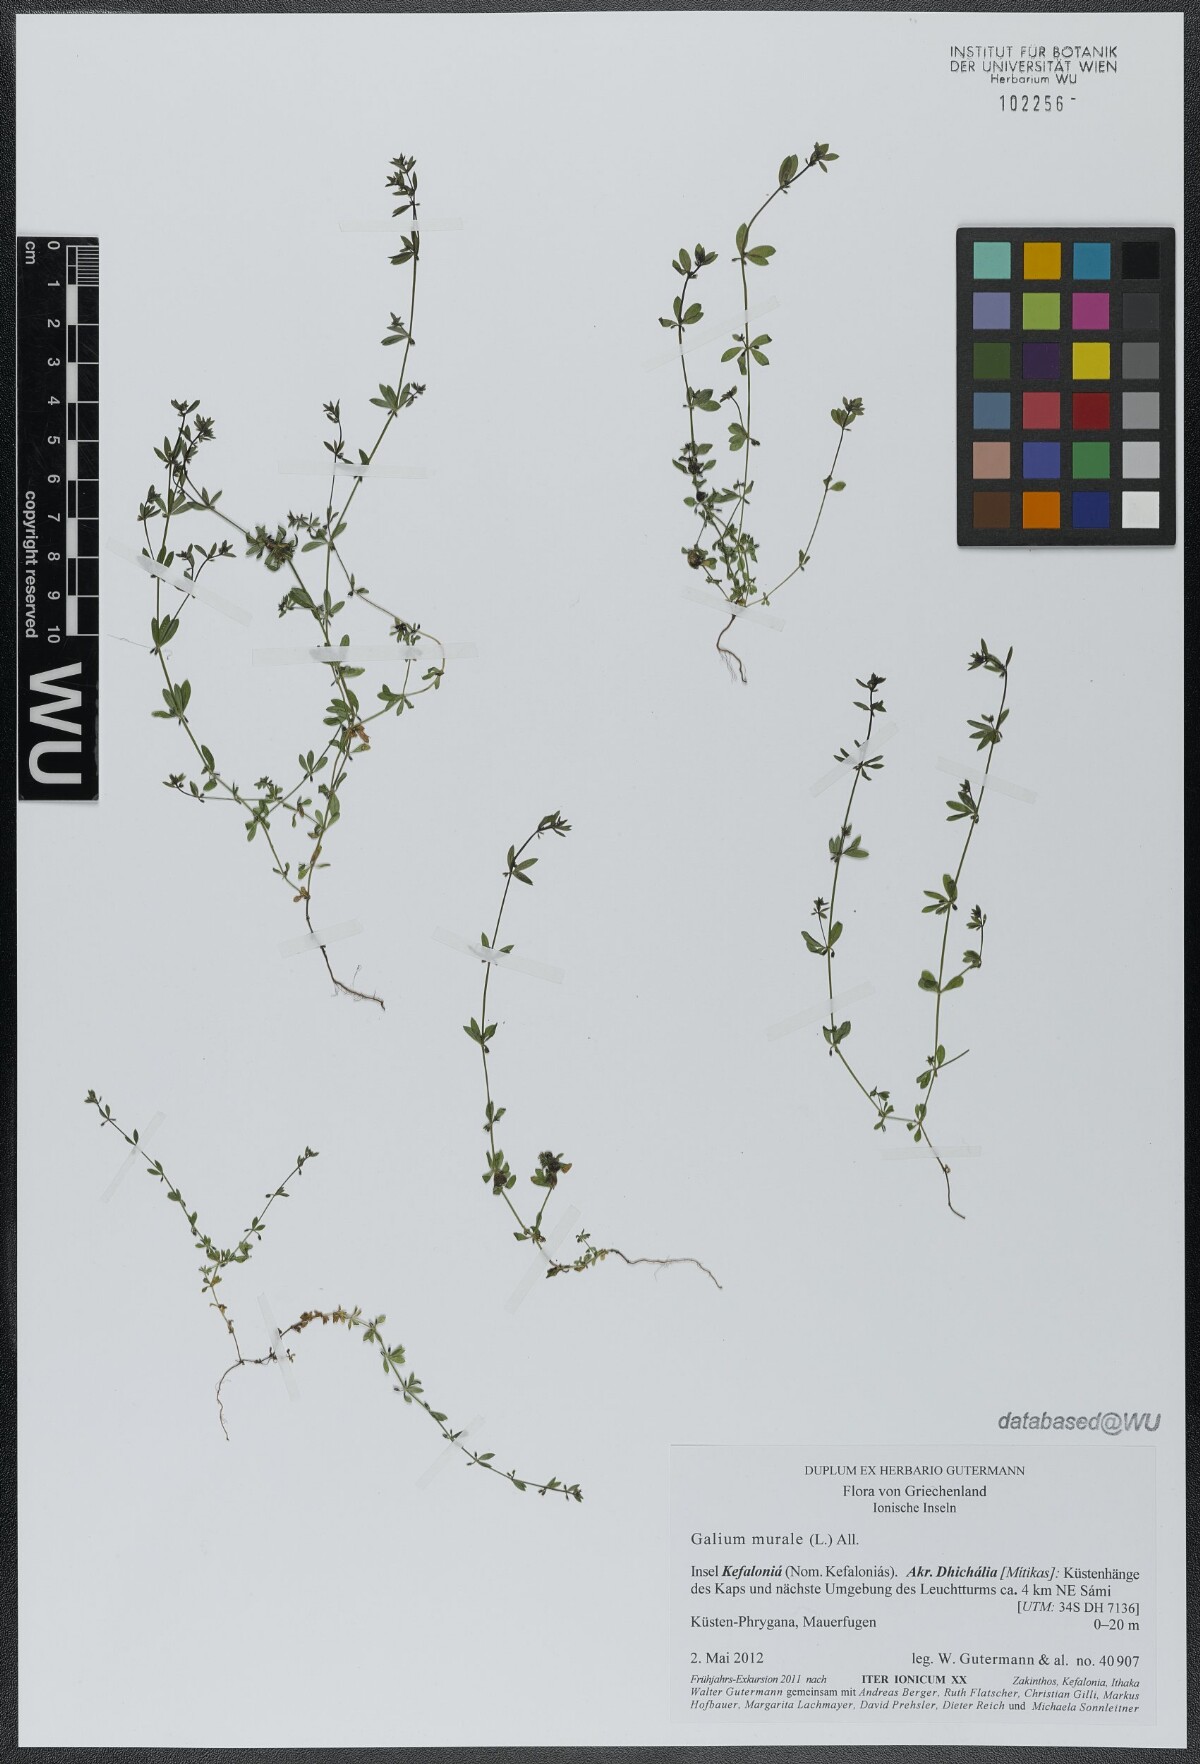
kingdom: Plantae
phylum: Tracheophyta
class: Magnoliopsida
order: Gentianales
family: Rubiaceae
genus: Galium
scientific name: Galium murale
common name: Yellow wall bedstraw
